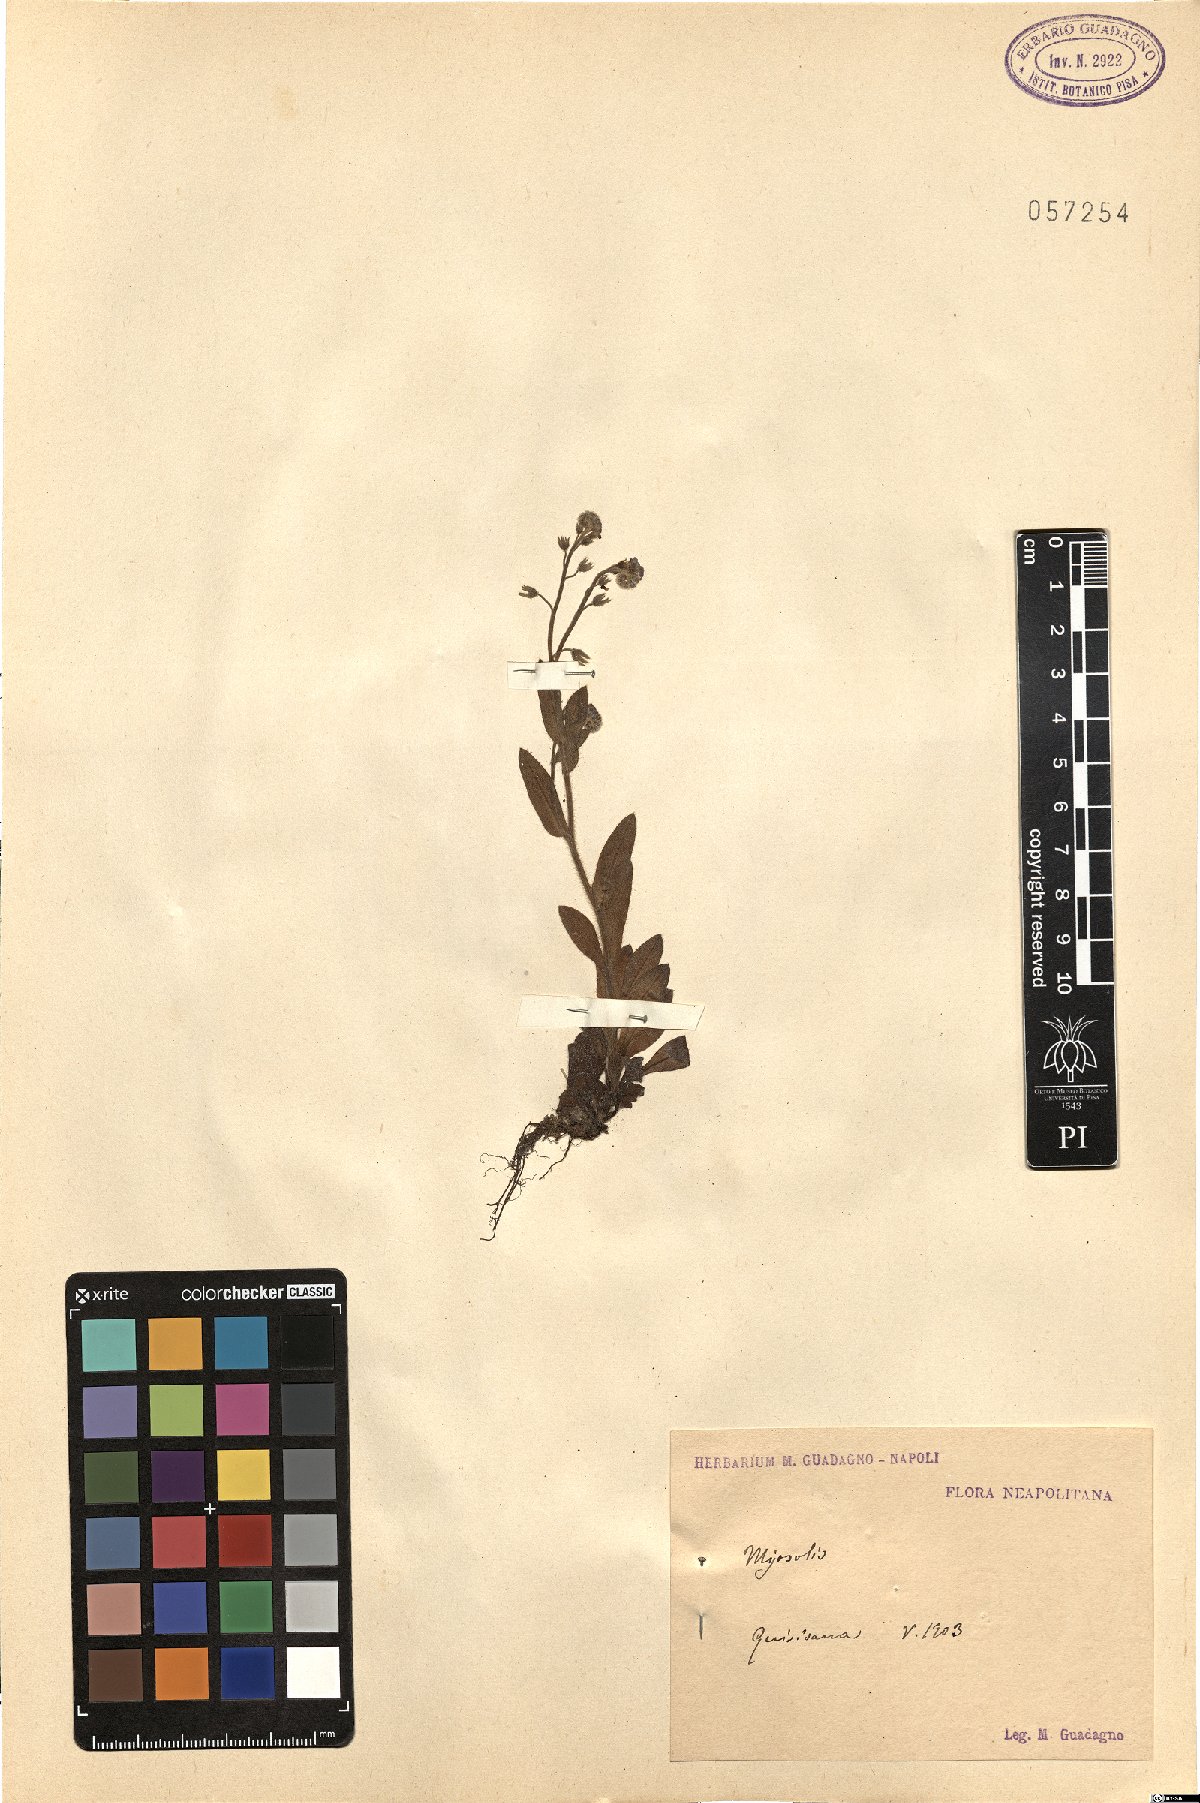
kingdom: Plantae
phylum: Tracheophyta
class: Magnoliopsida
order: Boraginales
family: Boraginaceae
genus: Myosotis
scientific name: Myosotis
